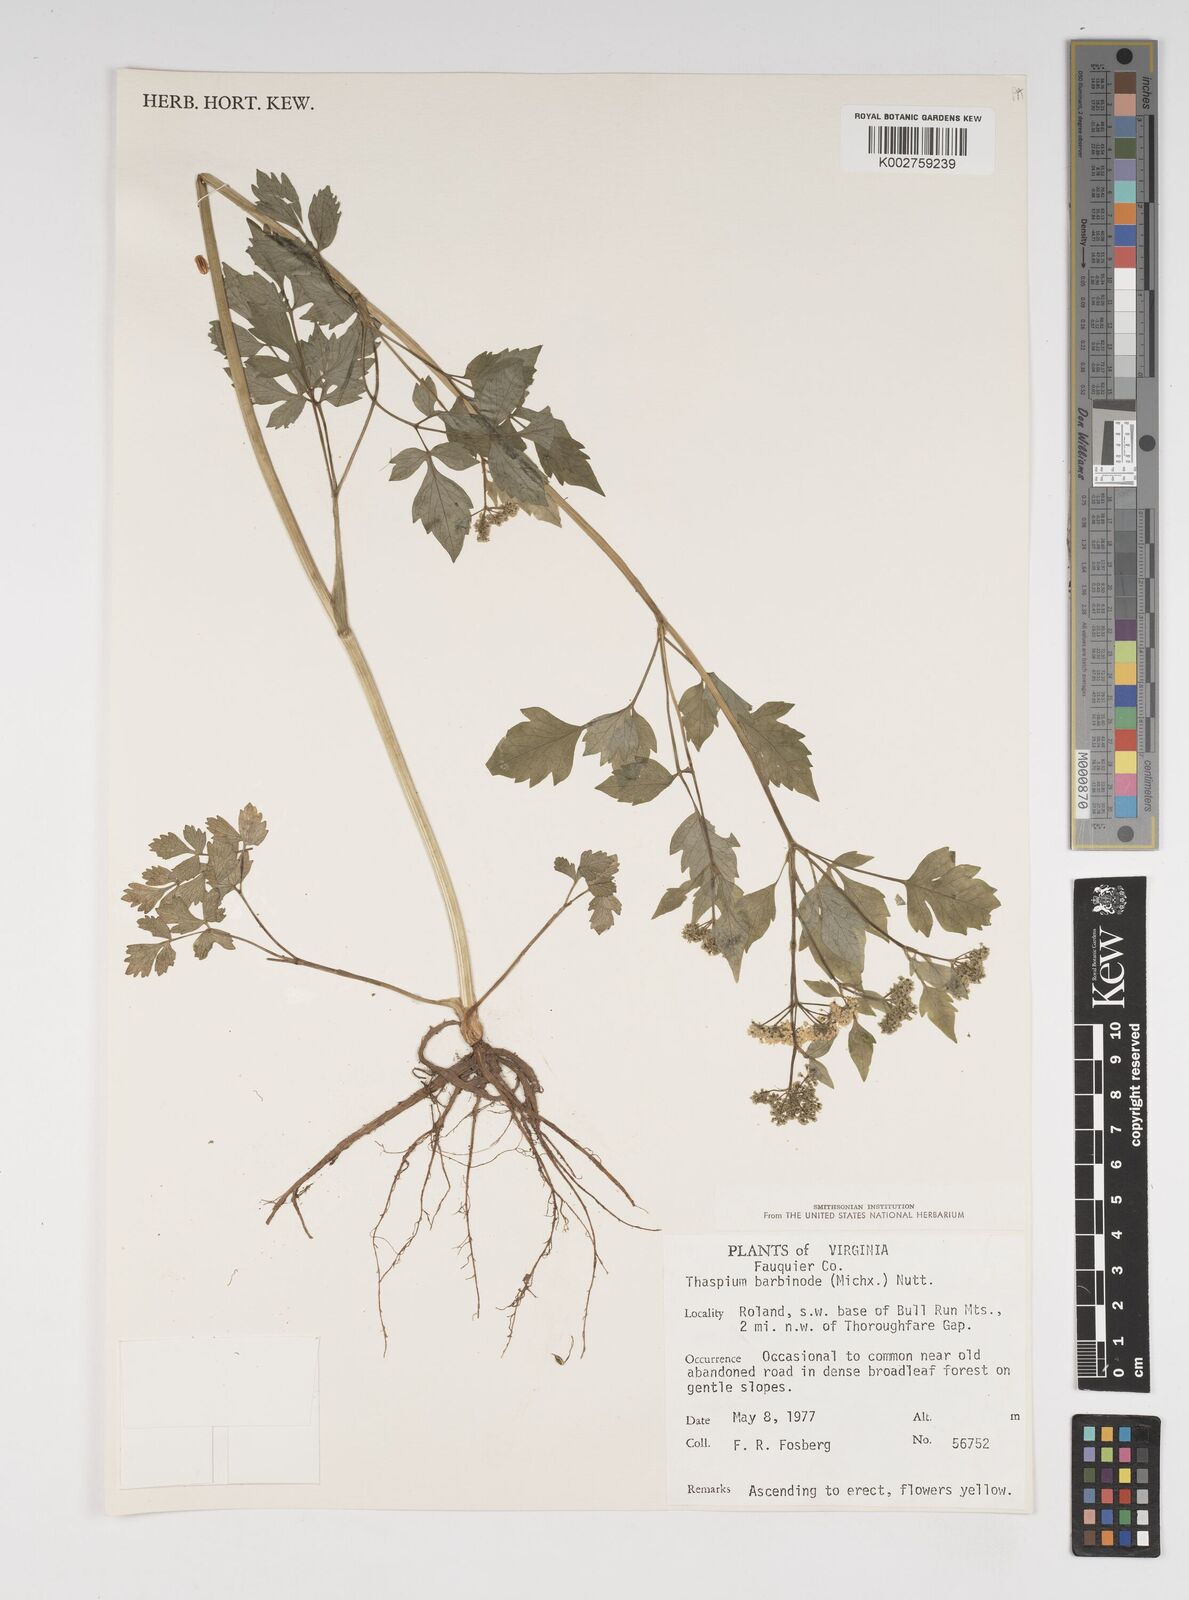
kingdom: Plantae
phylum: Tracheophyta
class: Magnoliopsida
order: Apiales
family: Apiaceae
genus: Thaspium
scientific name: Thaspium barbinode
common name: Bearded meadow-parsnip
